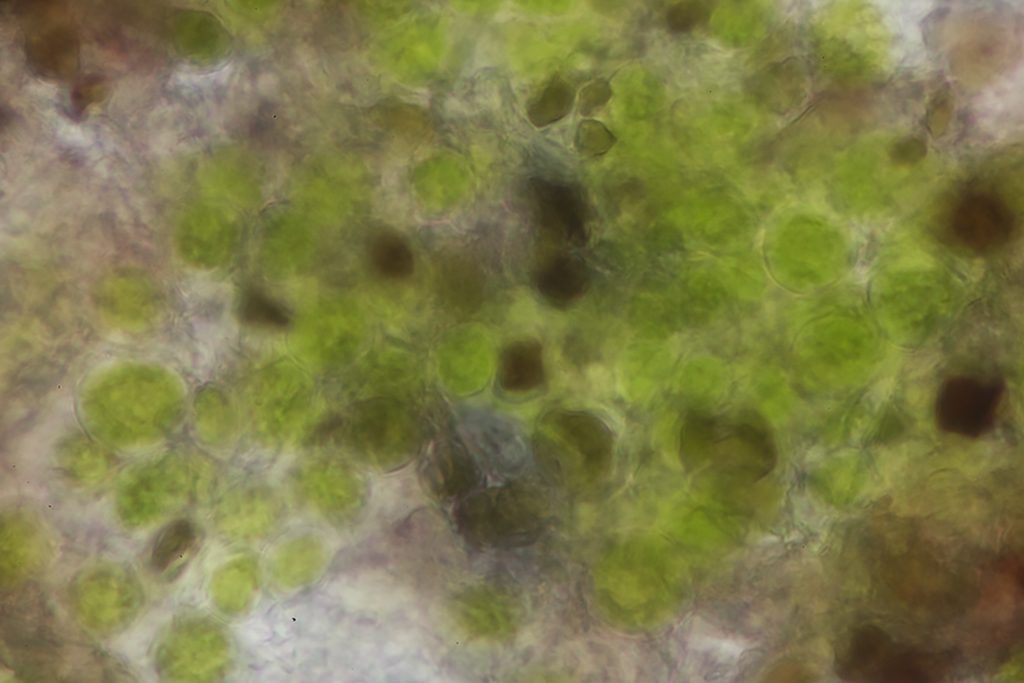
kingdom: Fungi
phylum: Ascomycota
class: Lecanoromycetes
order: Lecanorales
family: Parmeliaceae
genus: Xanthoparmelia
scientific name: Xanthoparmelia conspersa
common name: messing-skållav
